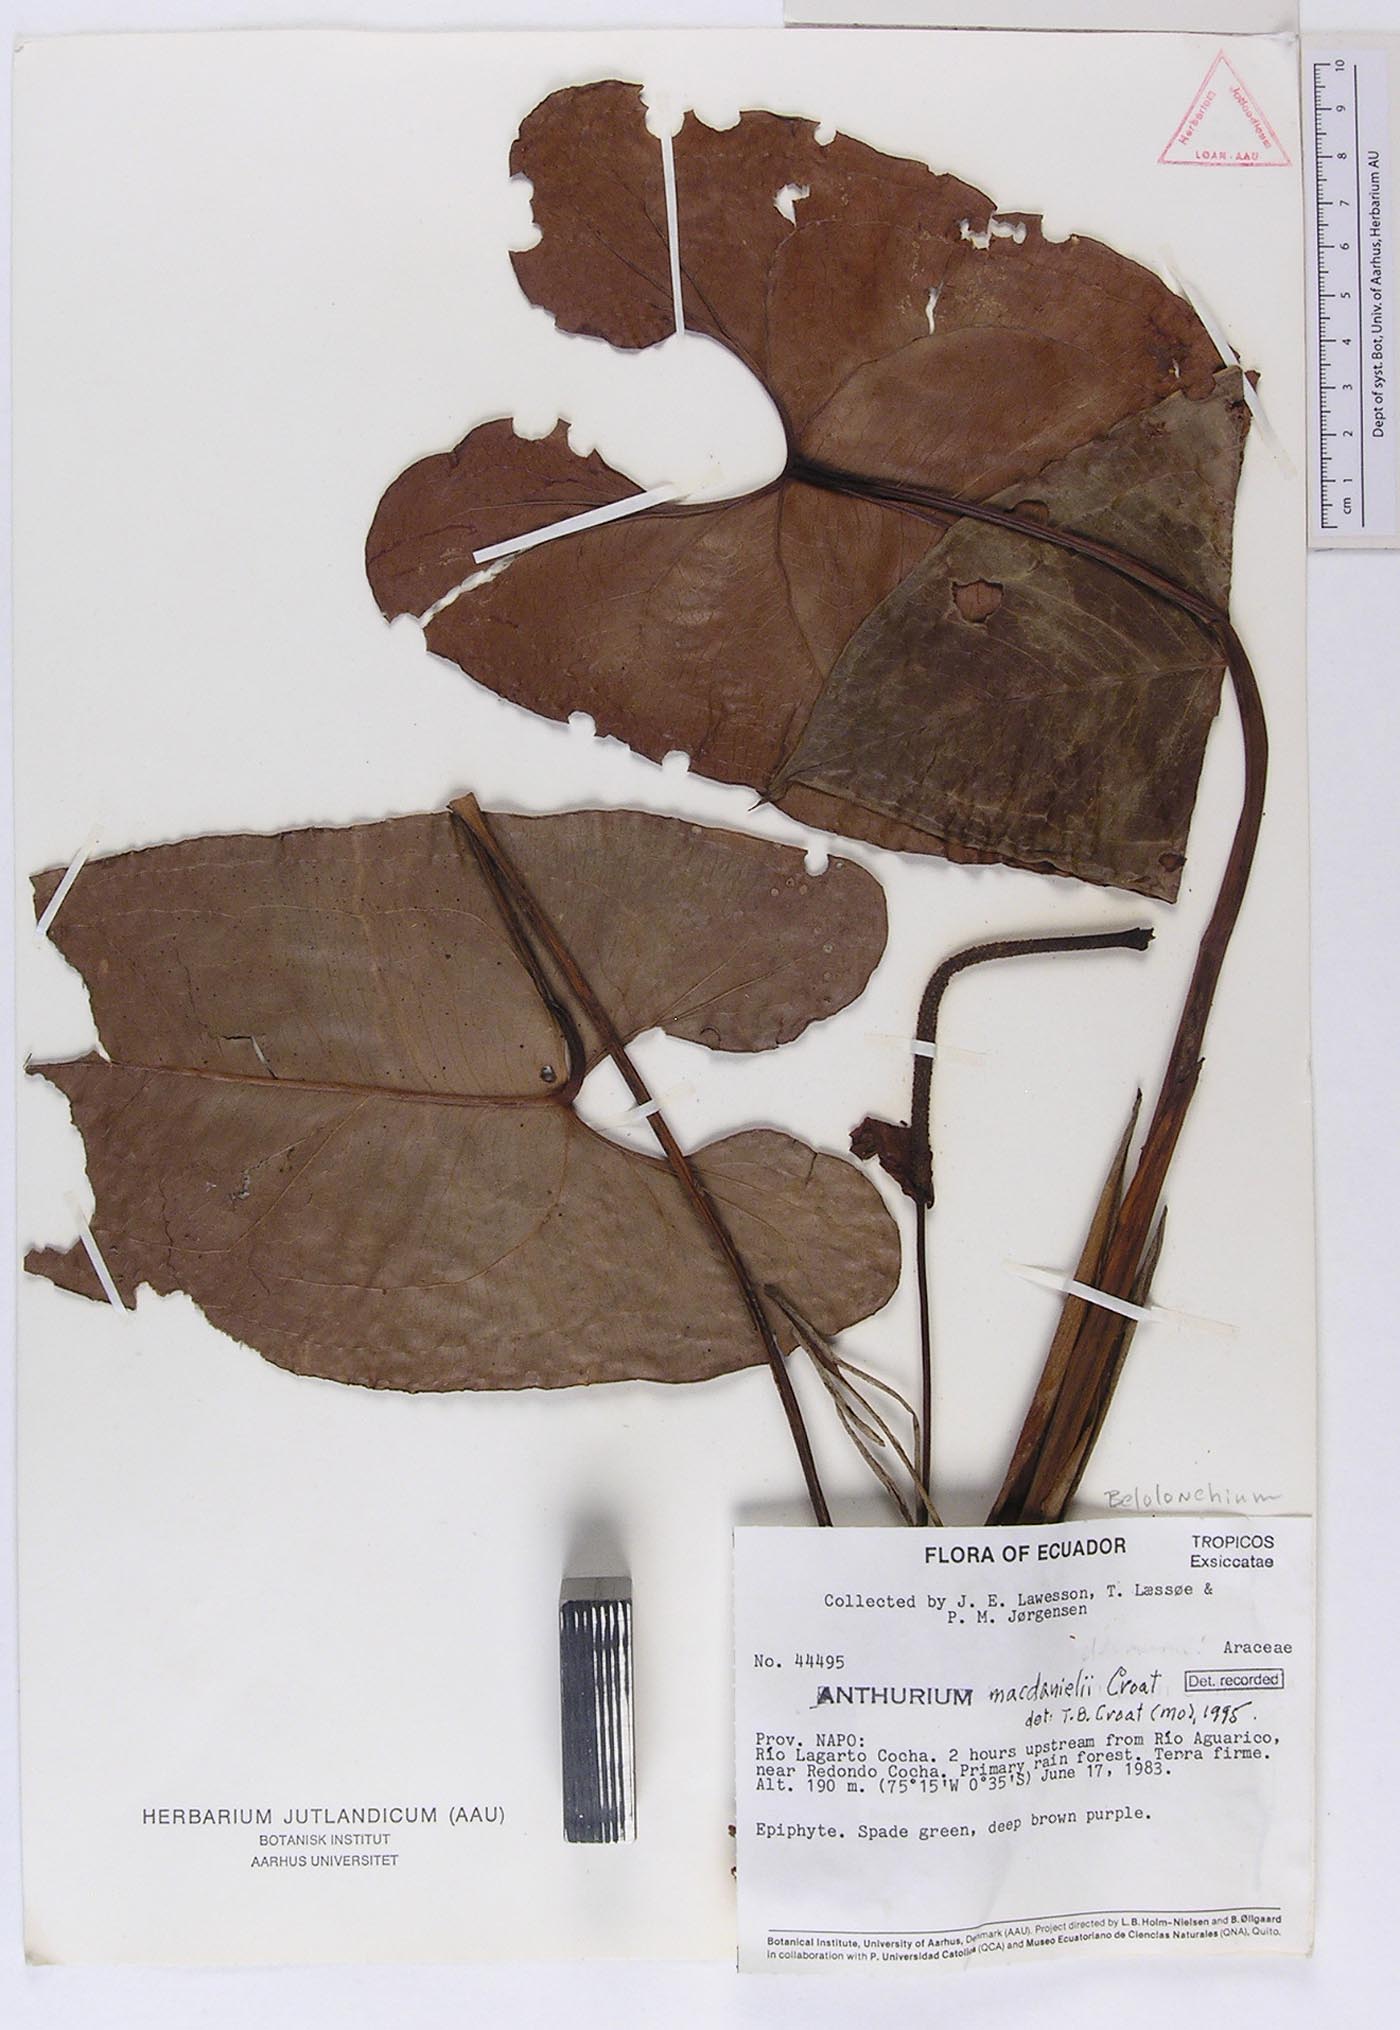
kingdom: Plantae
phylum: Tracheophyta
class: Liliopsida
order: Alismatales
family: Araceae
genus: Anthurium
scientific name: Anthurium macdanielii
